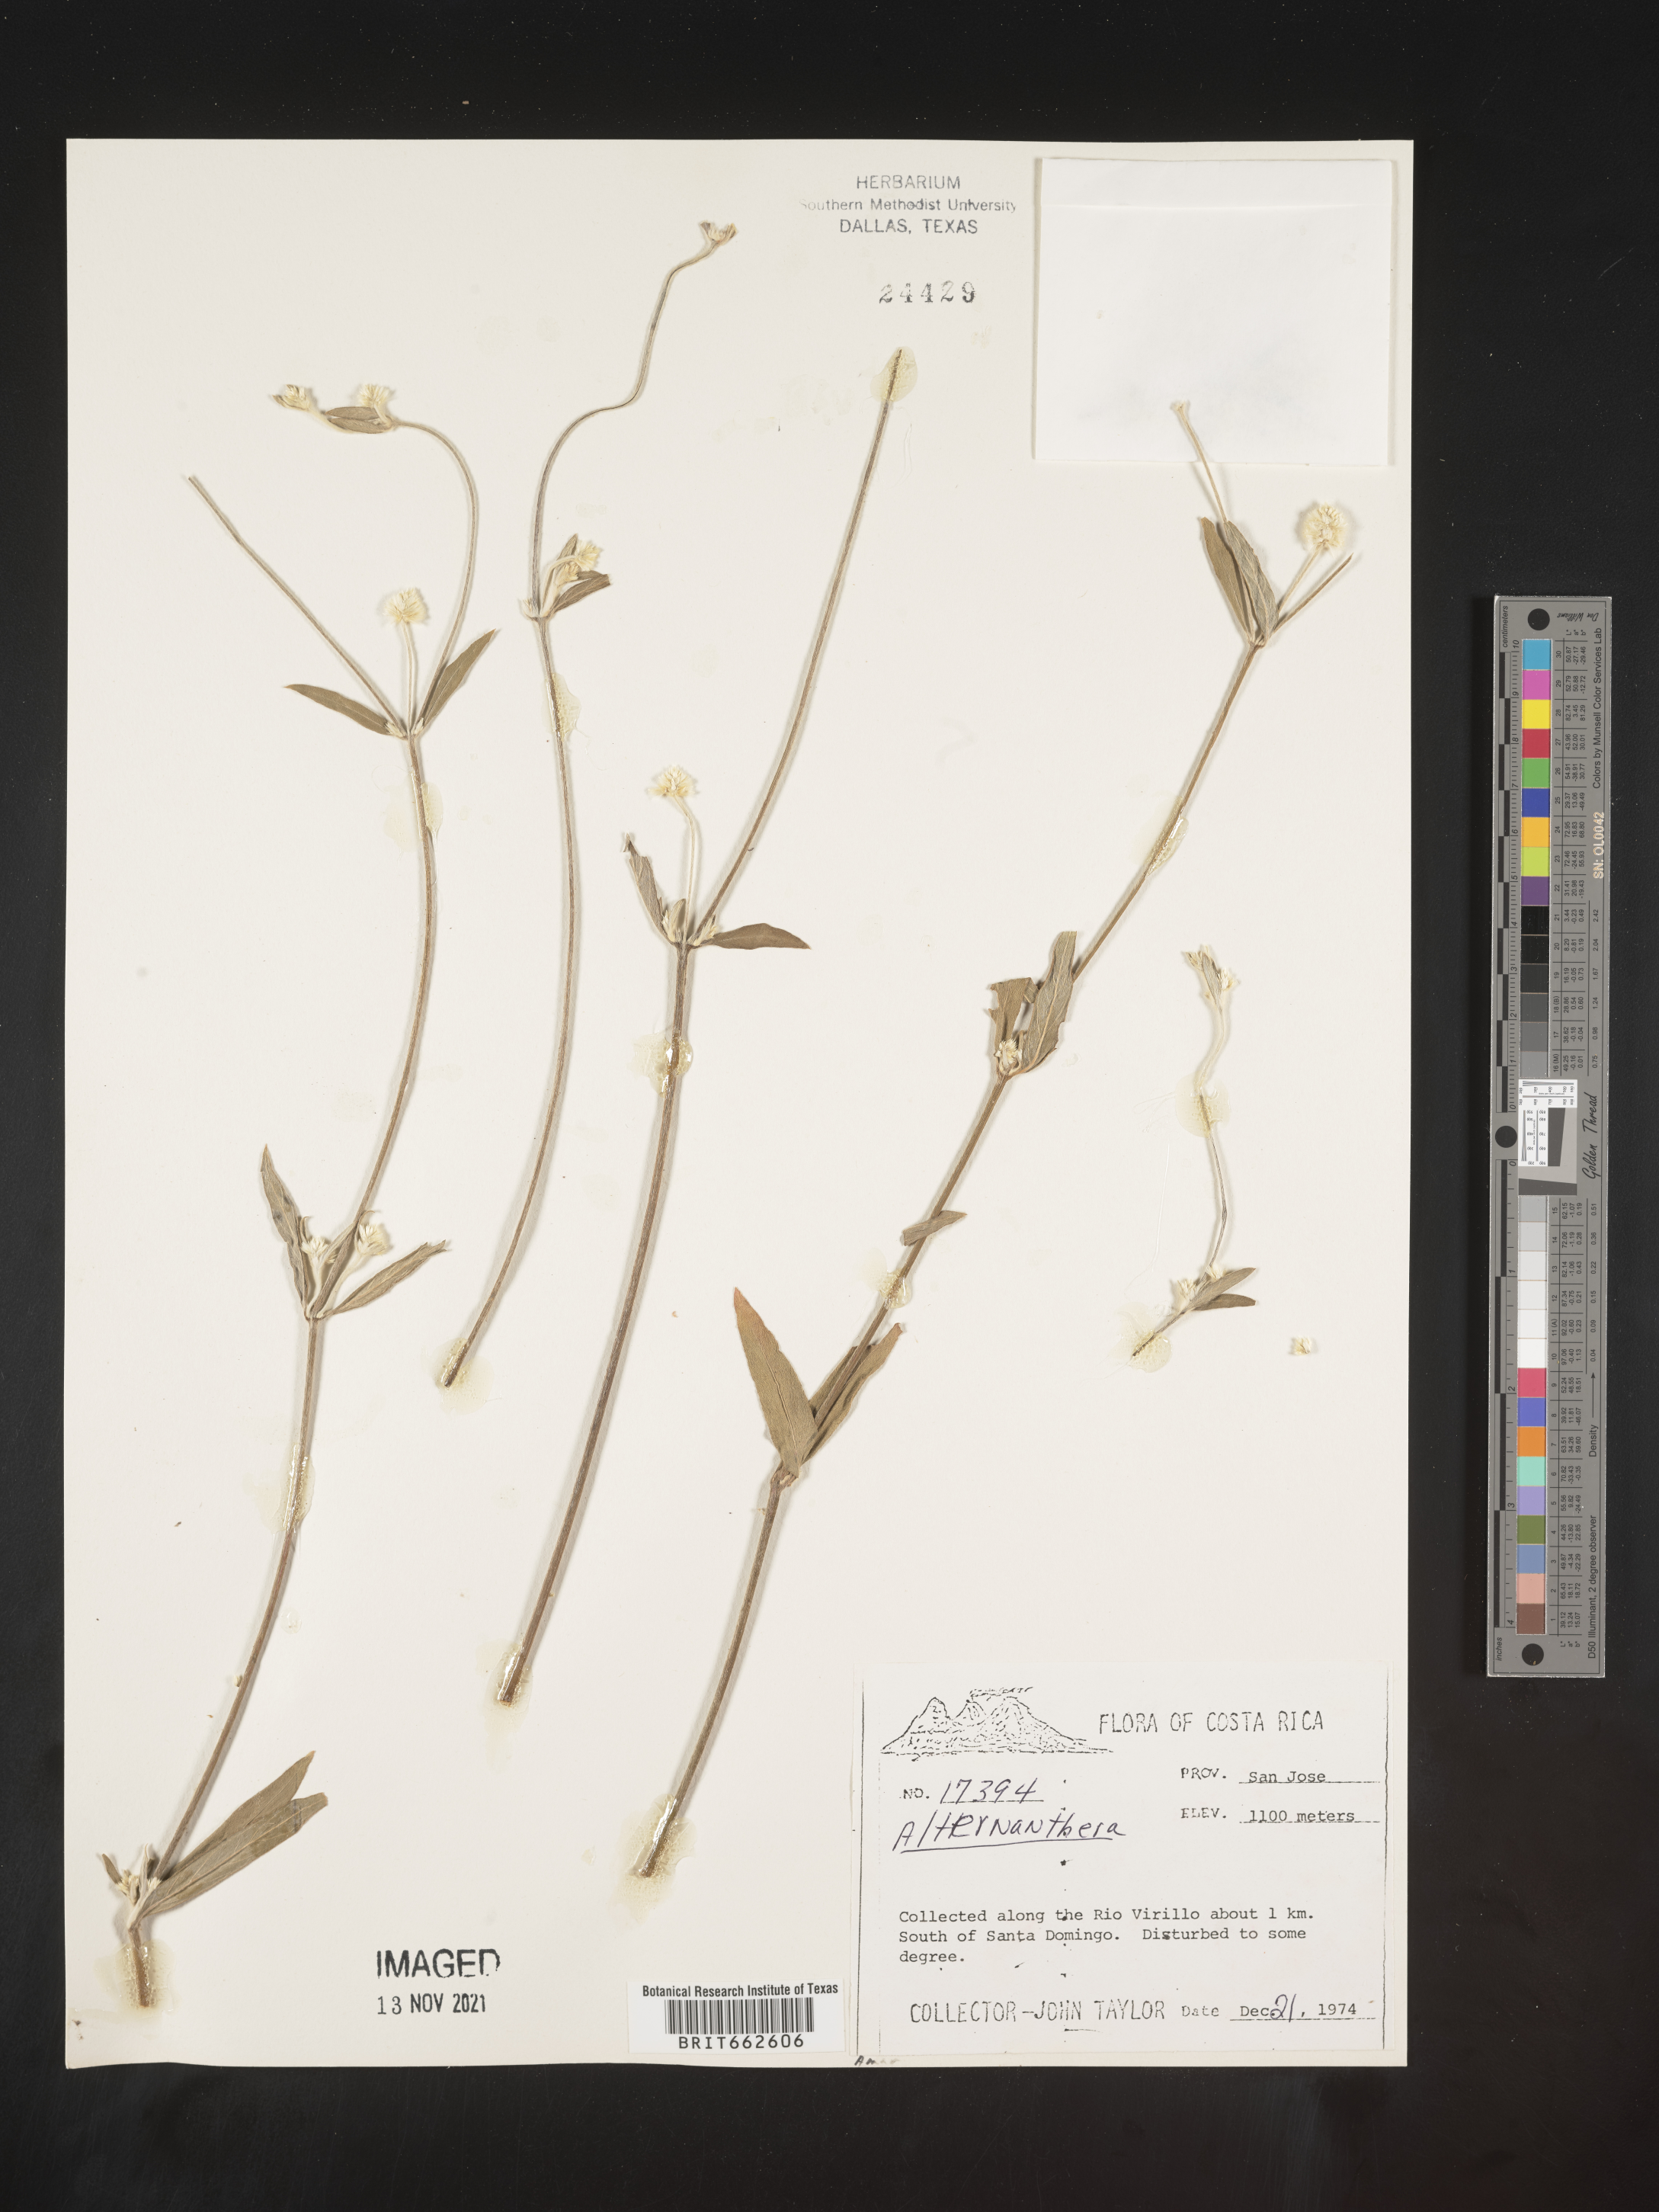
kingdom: Plantae
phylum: Tracheophyta
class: Magnoliopsida
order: Caryophyllales
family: Amaranthaceae
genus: Alternanthera
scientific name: Alternanthera
